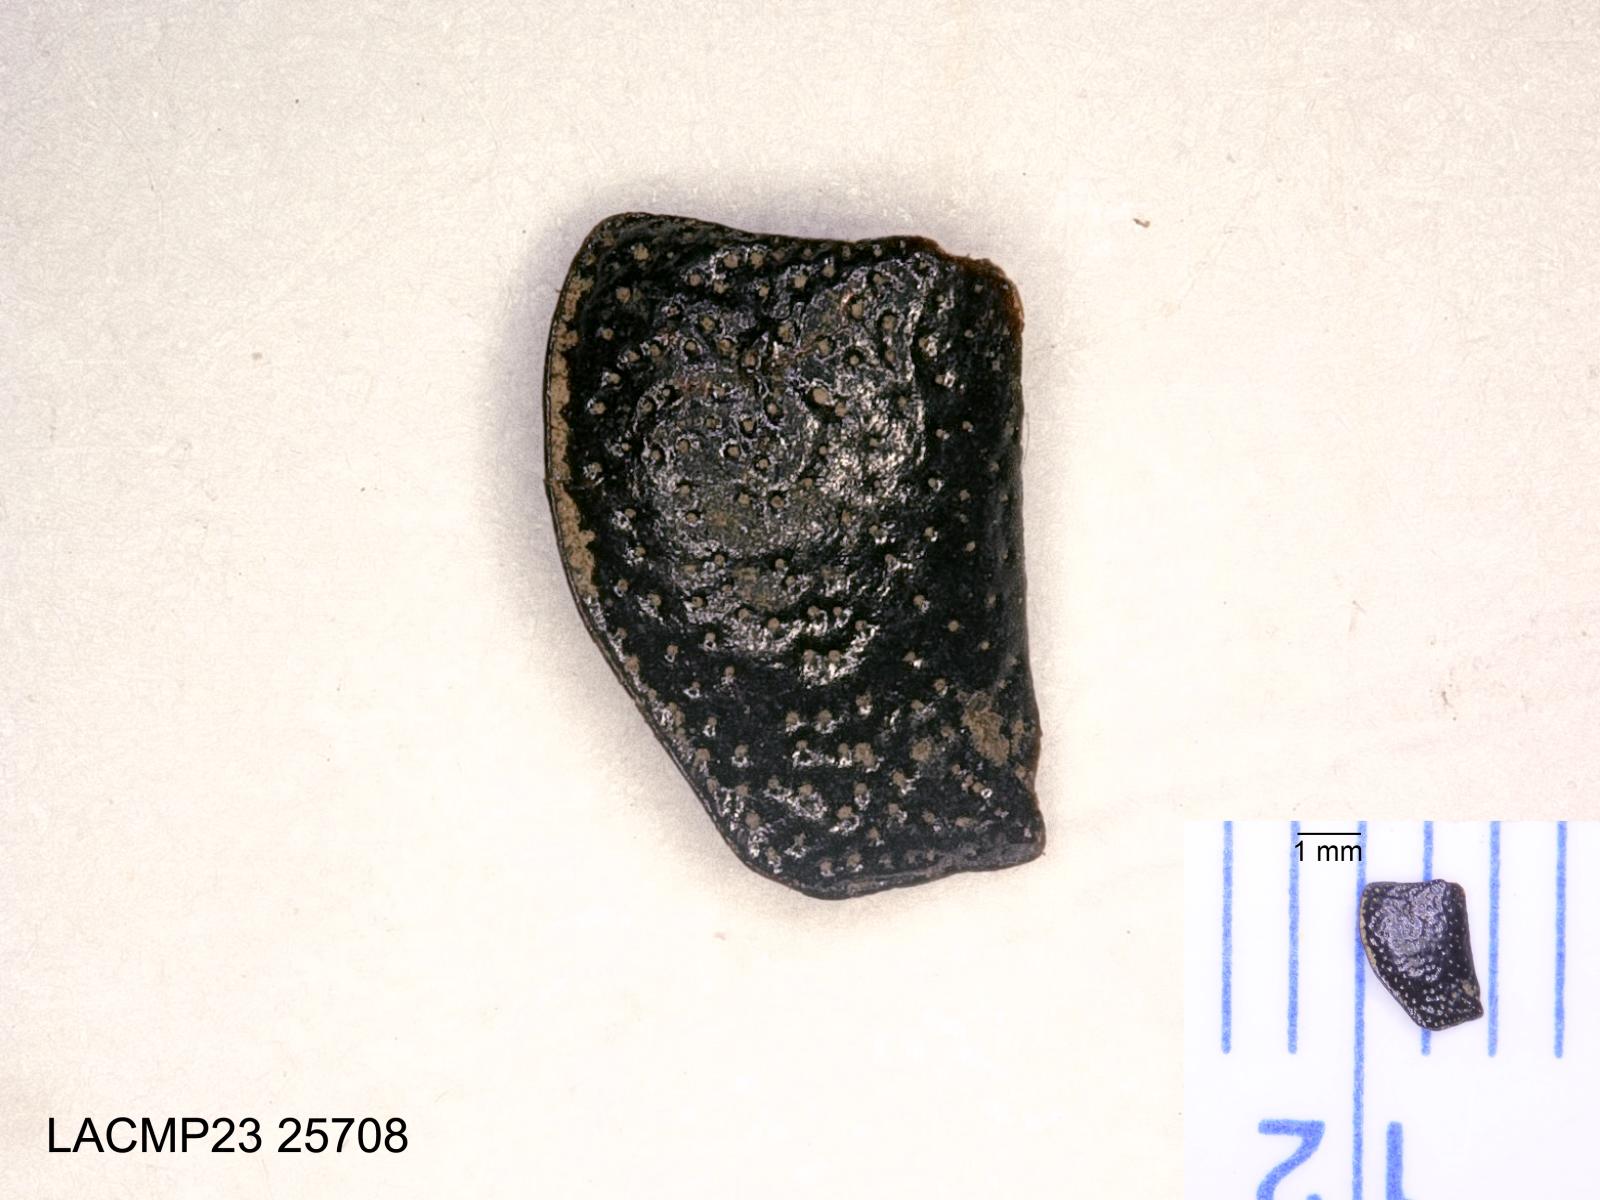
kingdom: Animalia
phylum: Arthropoda
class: Insecta
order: Coleoptera
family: Carabidae
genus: Dicheirus
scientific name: Dicheirus dilatatus
